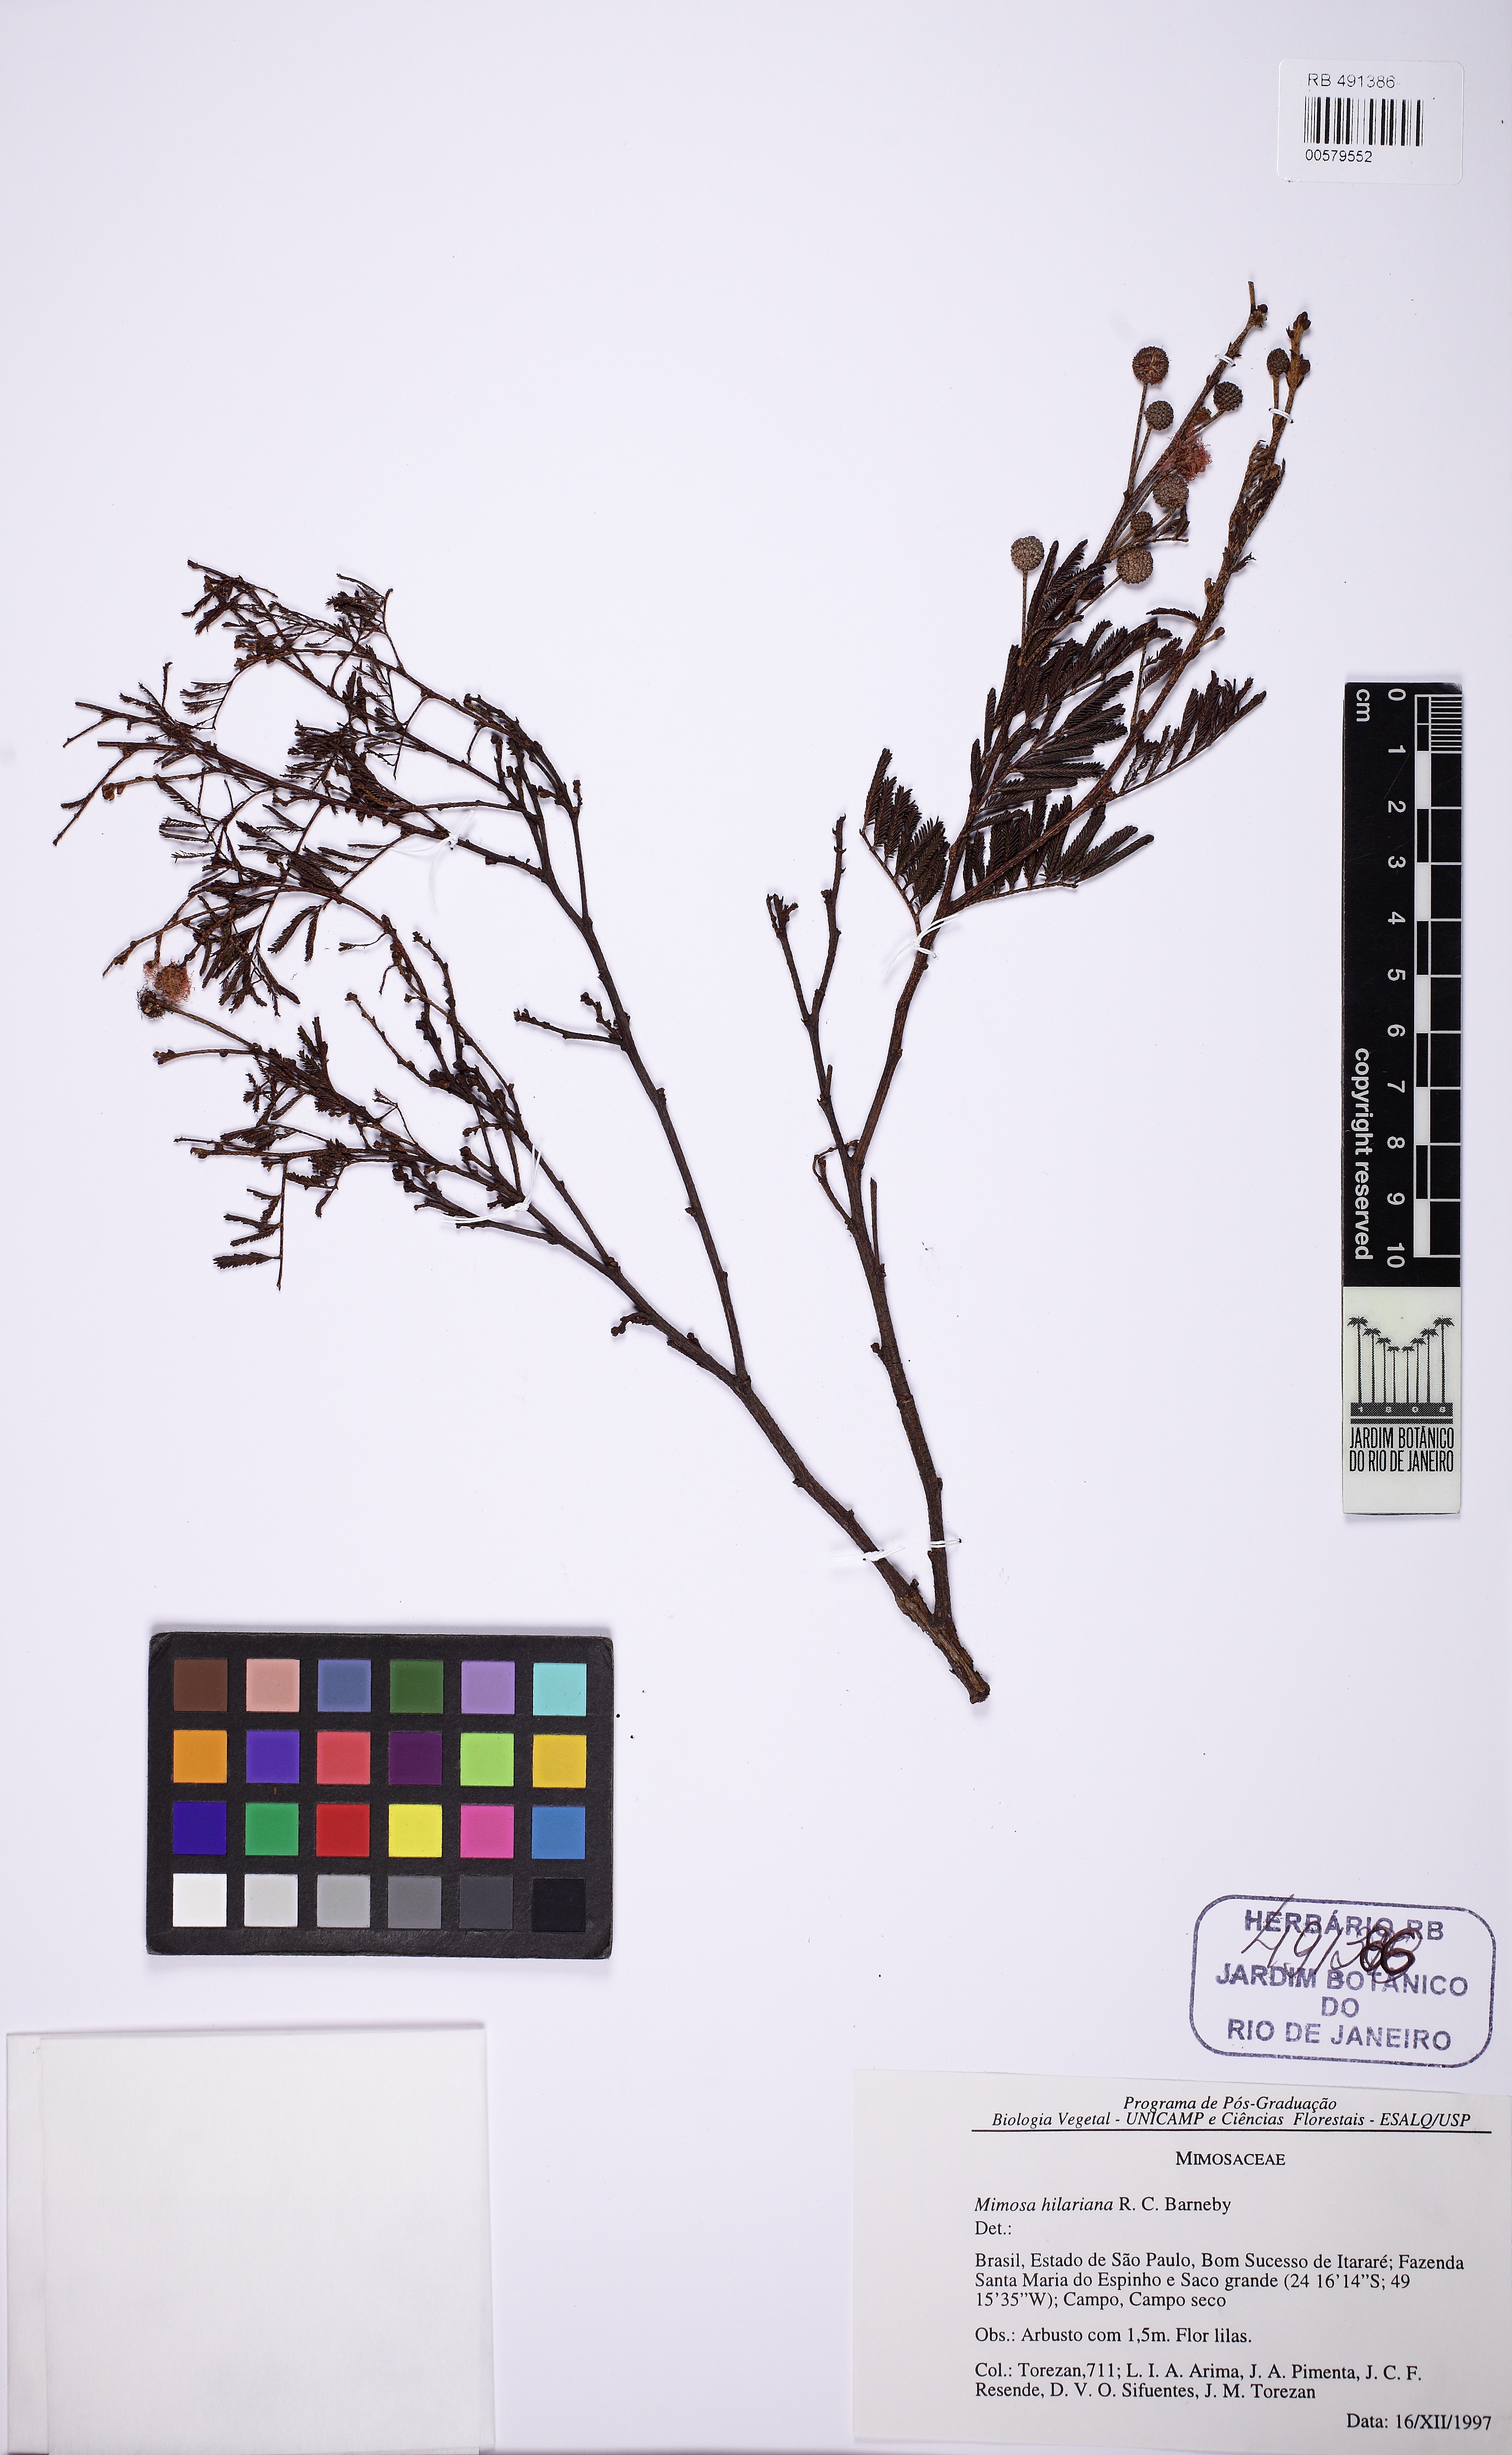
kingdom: Plantae
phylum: Tracheophyta
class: Magnoliopsida
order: Fabales
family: Fabaceae
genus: Mimosa
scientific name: Mimosa hilariana
